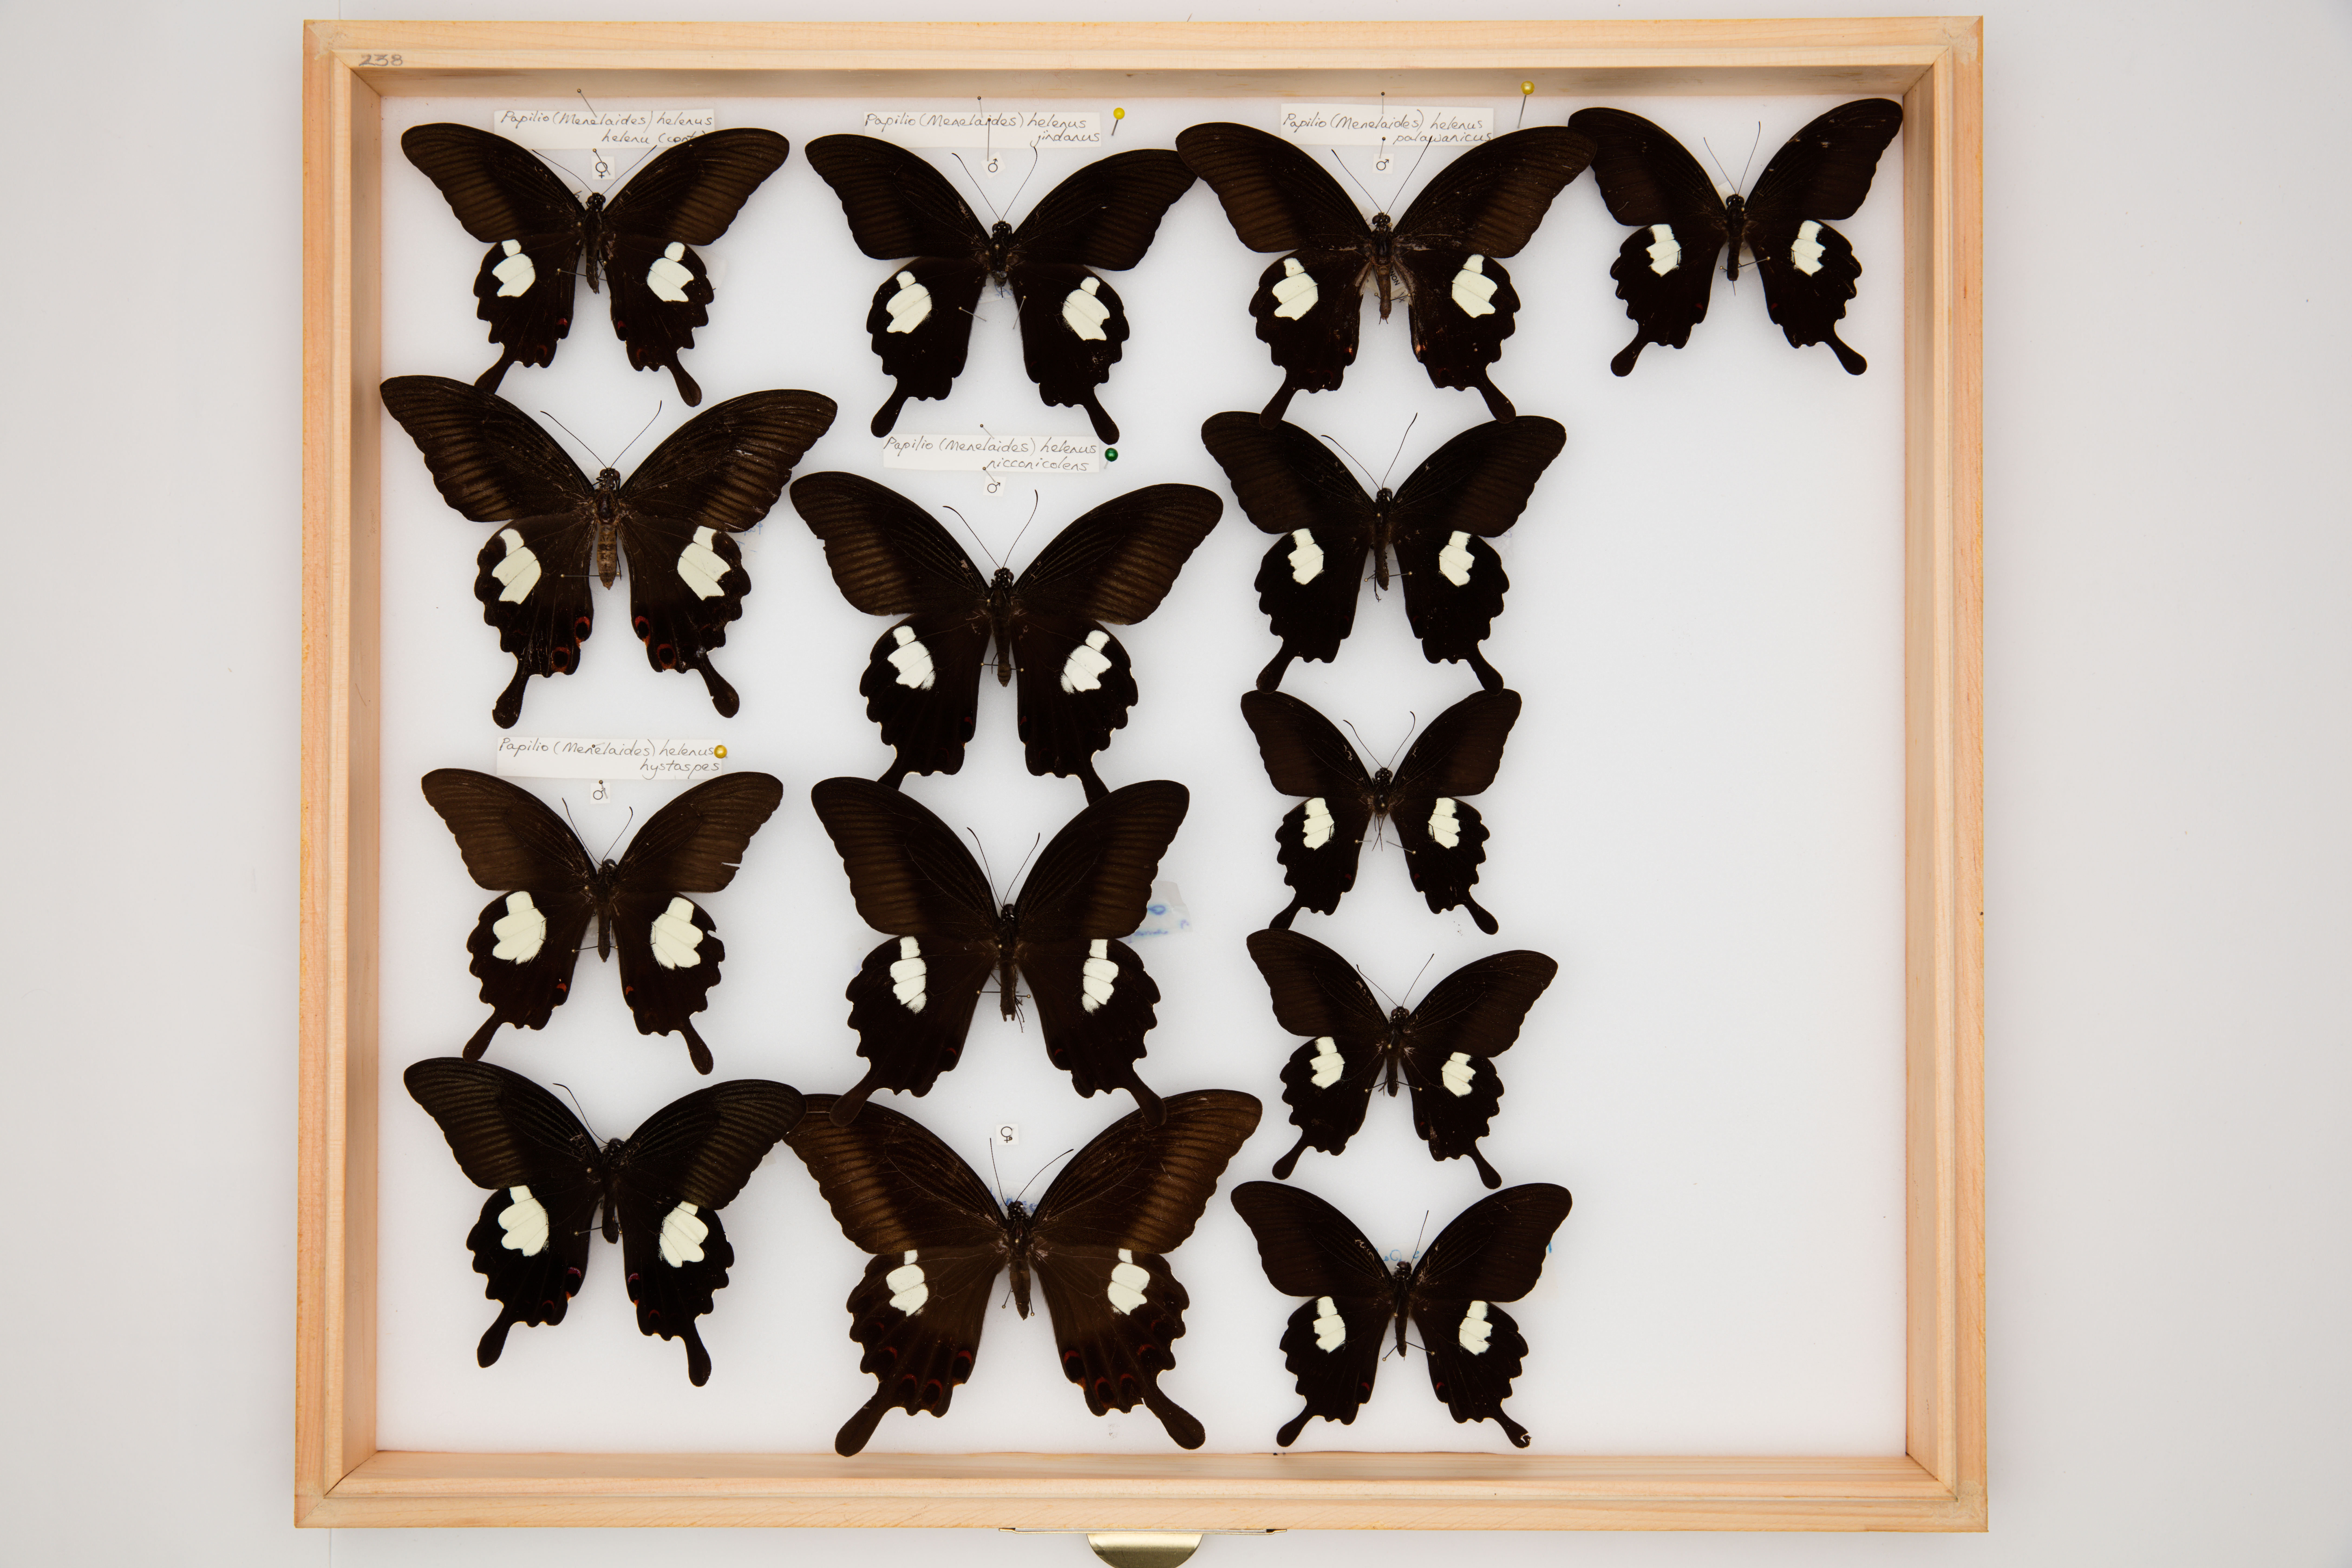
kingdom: Animalia
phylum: Arthropoda
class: Insecta
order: Lepidoptera
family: Papilionidae
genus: Papilio
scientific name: Papilio helenus
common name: Red helen
